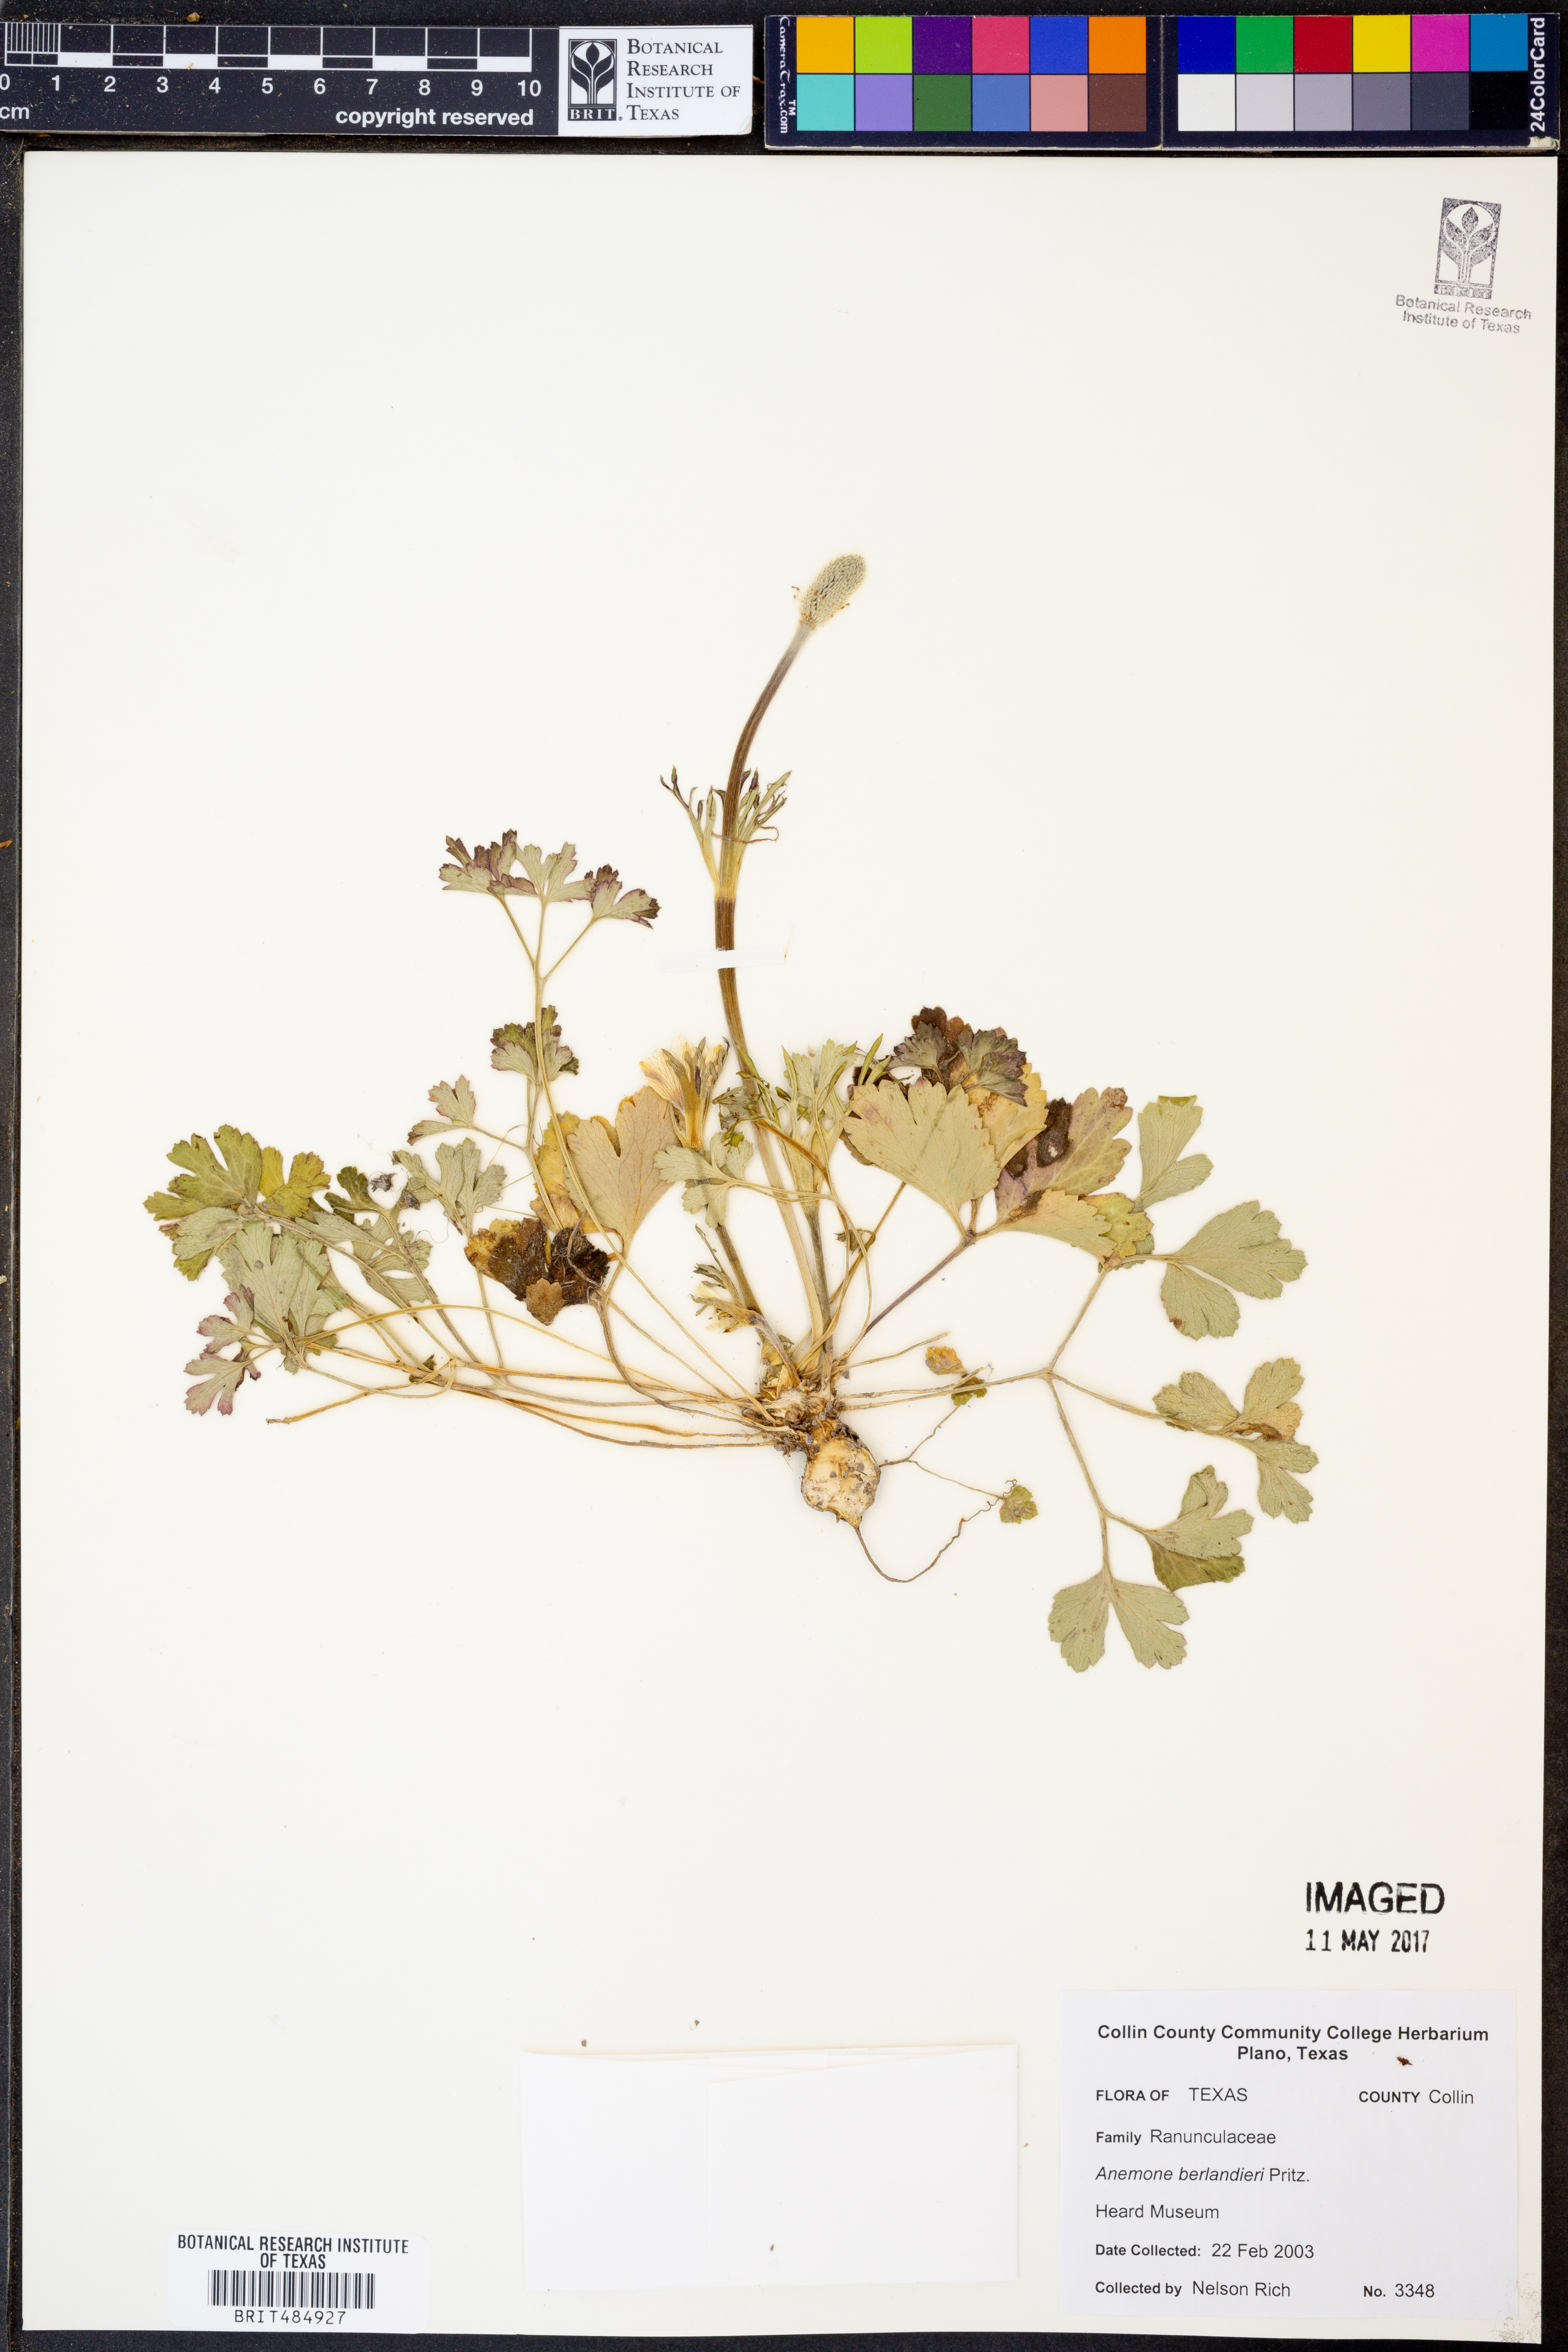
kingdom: Plantae
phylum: Tracheophyta
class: Magnoliopsida
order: Ranunculales
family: Ranunculaceae
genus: Anemone
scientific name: Anemone berlandieri
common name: Ten-petal anemone
